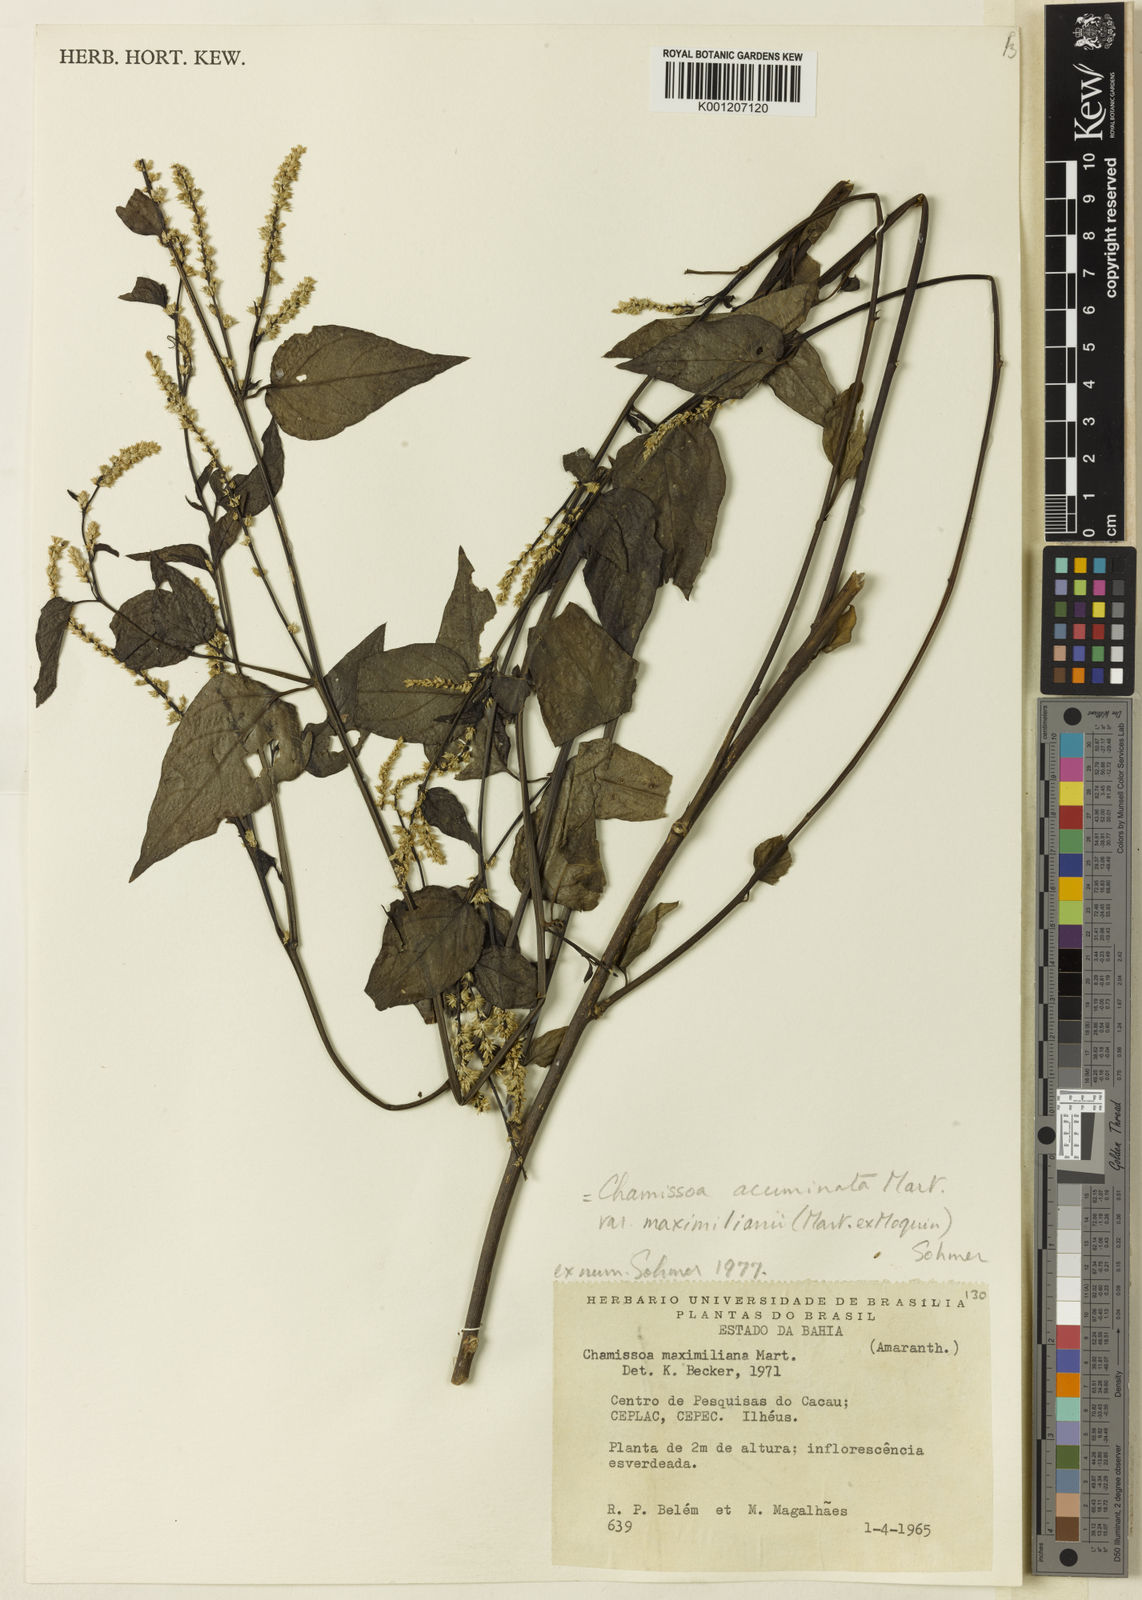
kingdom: Plantae
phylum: Tracheophyta
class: Magnoliopsida
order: Caryophyllales
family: Amaranthaceae
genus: Chamissoa
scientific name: Chamissoa maximiliani
